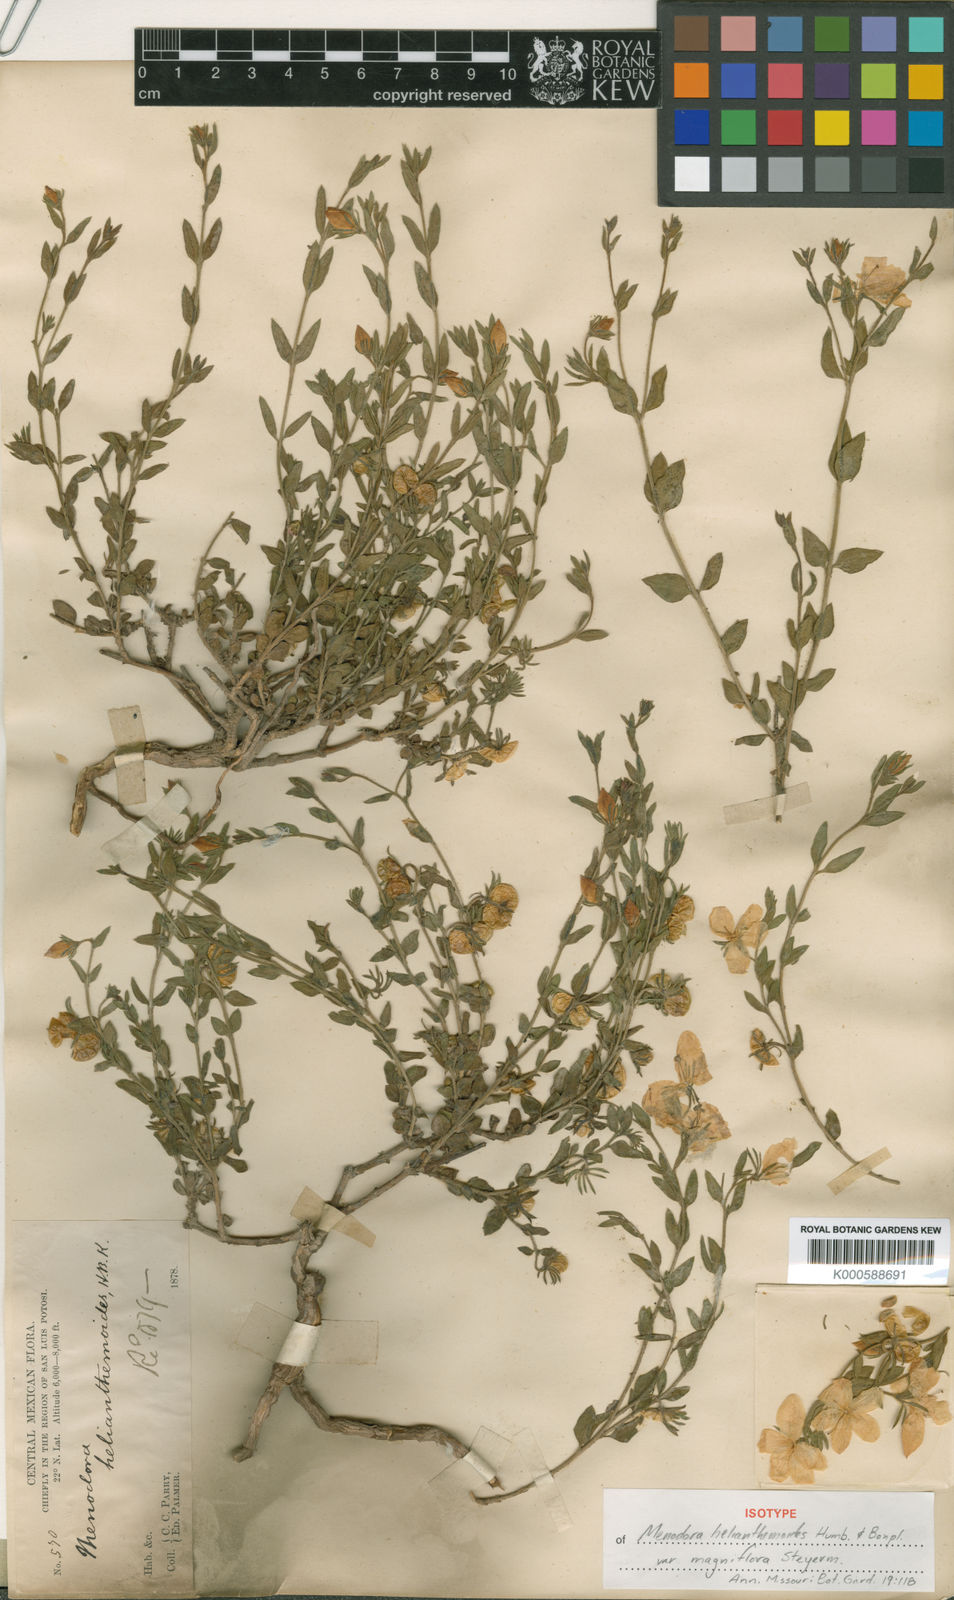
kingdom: Plantae
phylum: Tracheophyta
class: Magnoliopsida
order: Lamiales
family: Oleaceae
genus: Menodora
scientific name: Menodora magniflora
